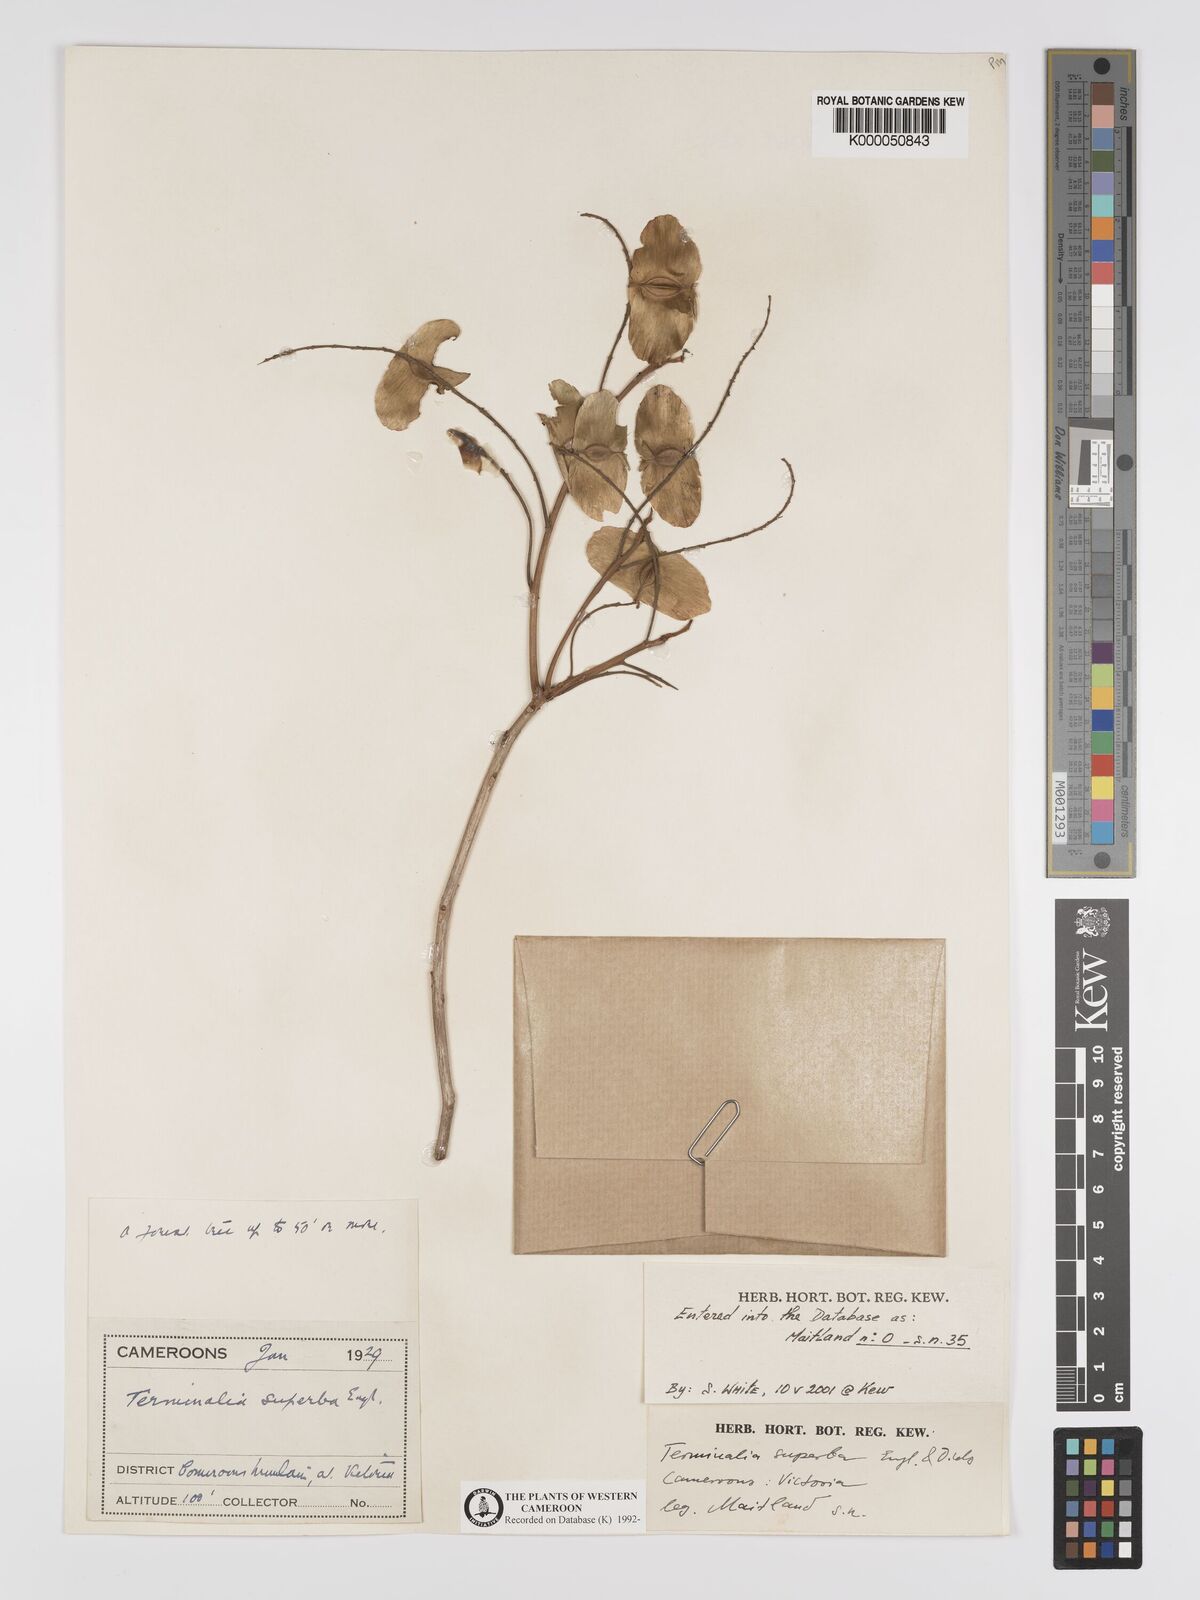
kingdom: Plantae
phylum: Tracheophyta
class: Magnoliopsida
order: Myrtales
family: Combretaceae
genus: Terminalia
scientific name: Terminalia superba
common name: White afara
